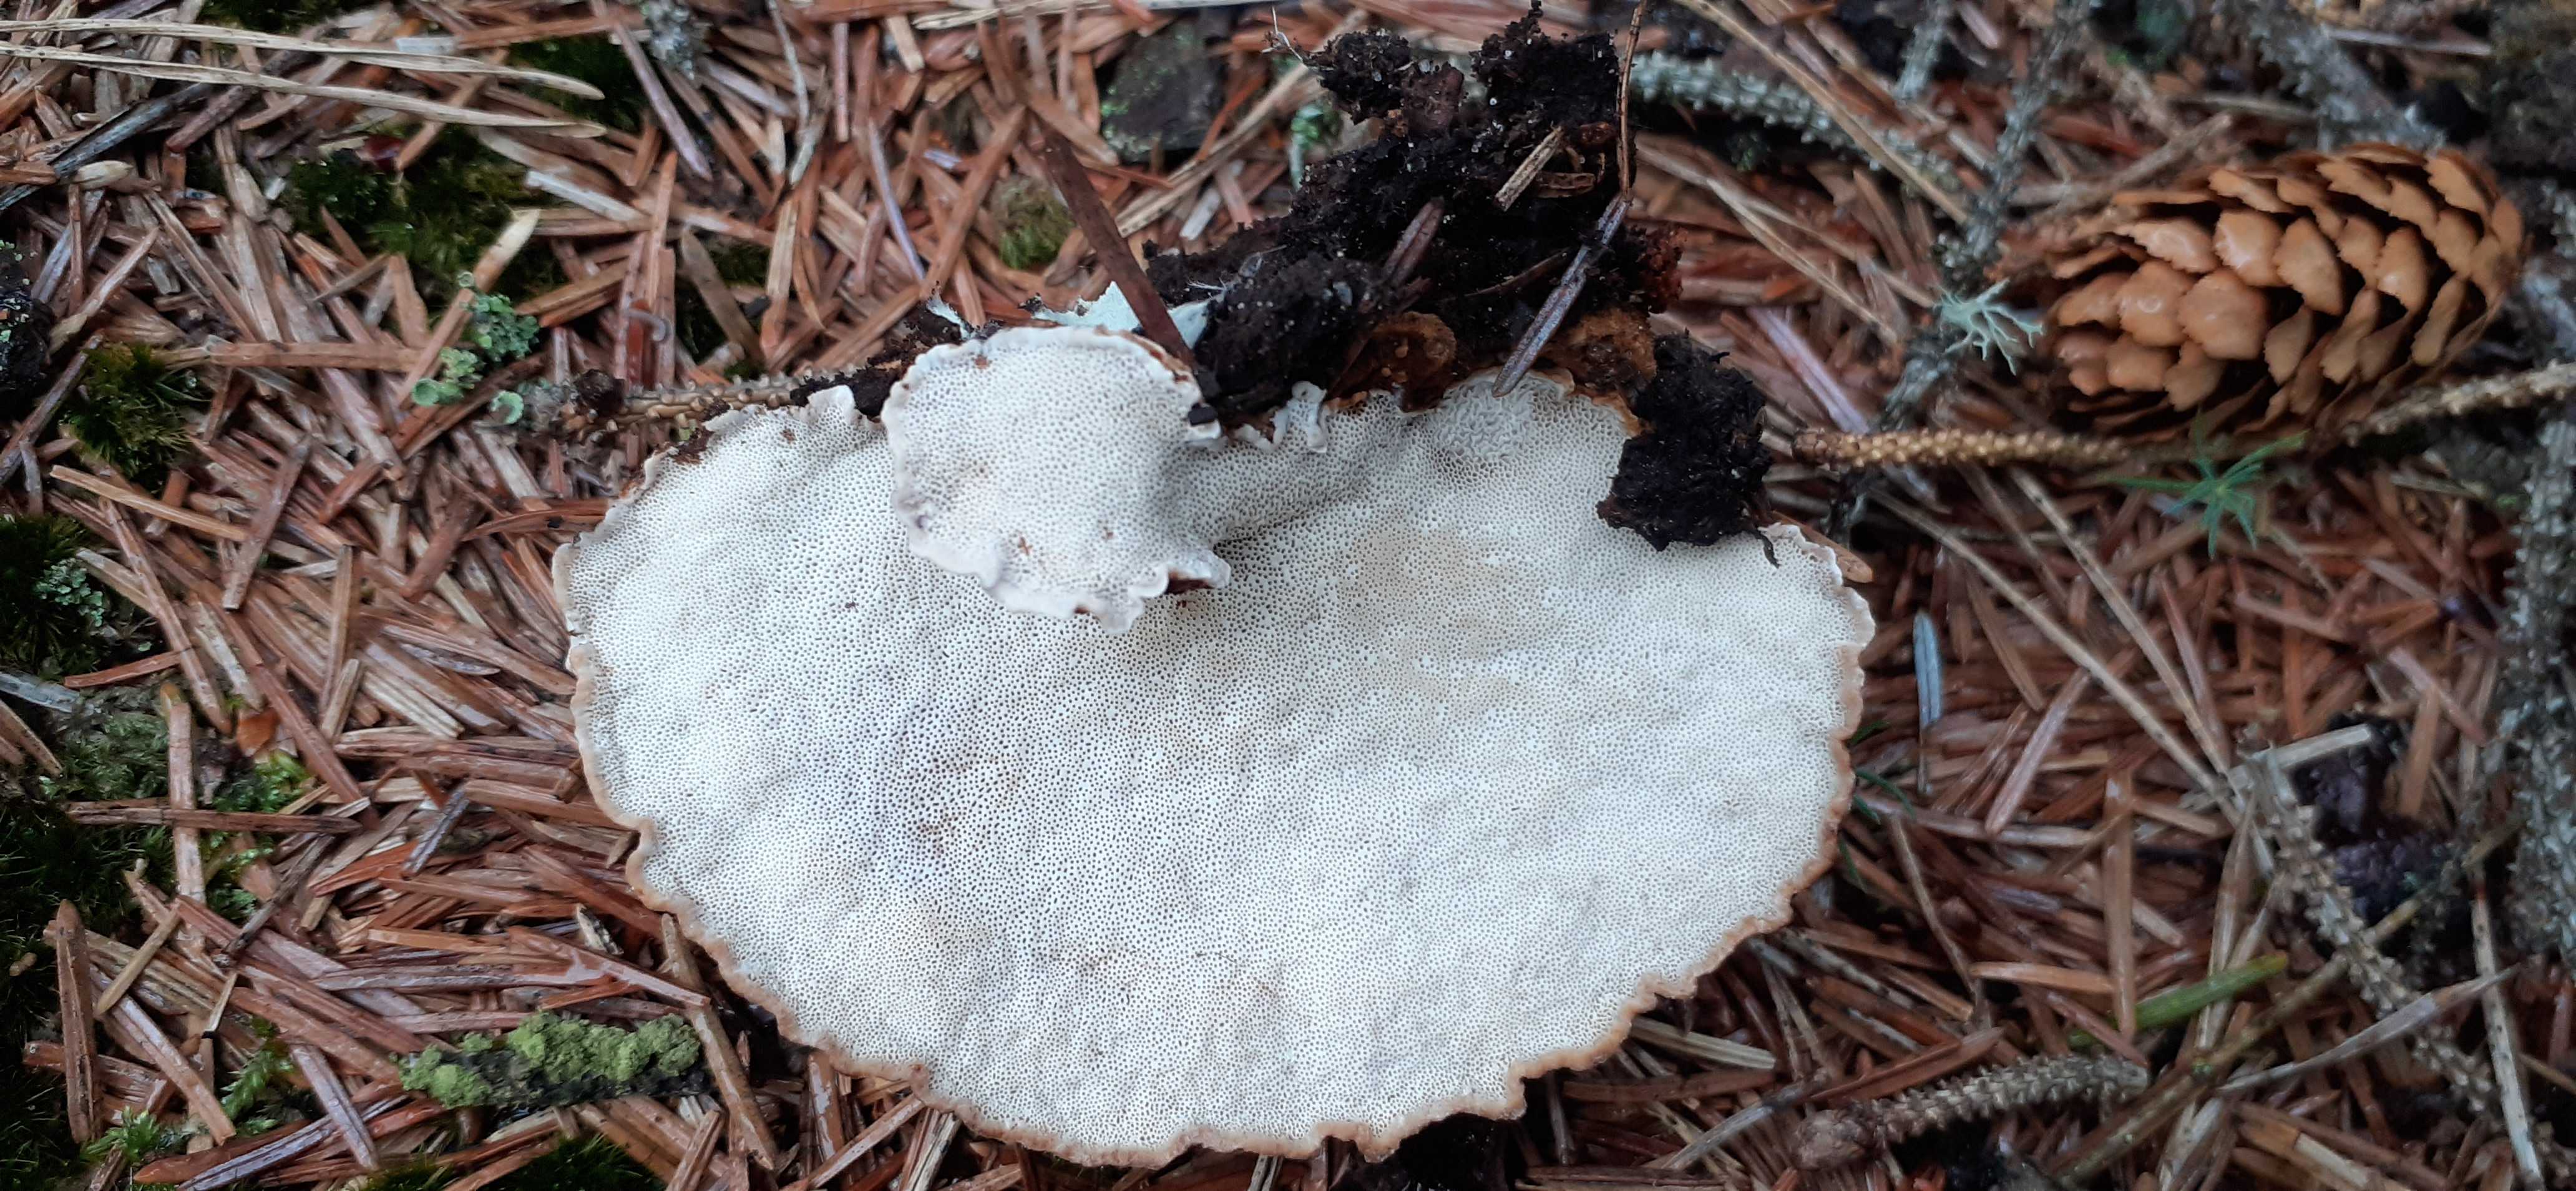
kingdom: Fungi
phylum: Basidiomycota
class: Agaricomycetes
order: Polyporales
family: Ischnodermataceae
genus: Ischnoderma
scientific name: Ischnoderma benzoinum
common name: gran-tjæreporesvamp
